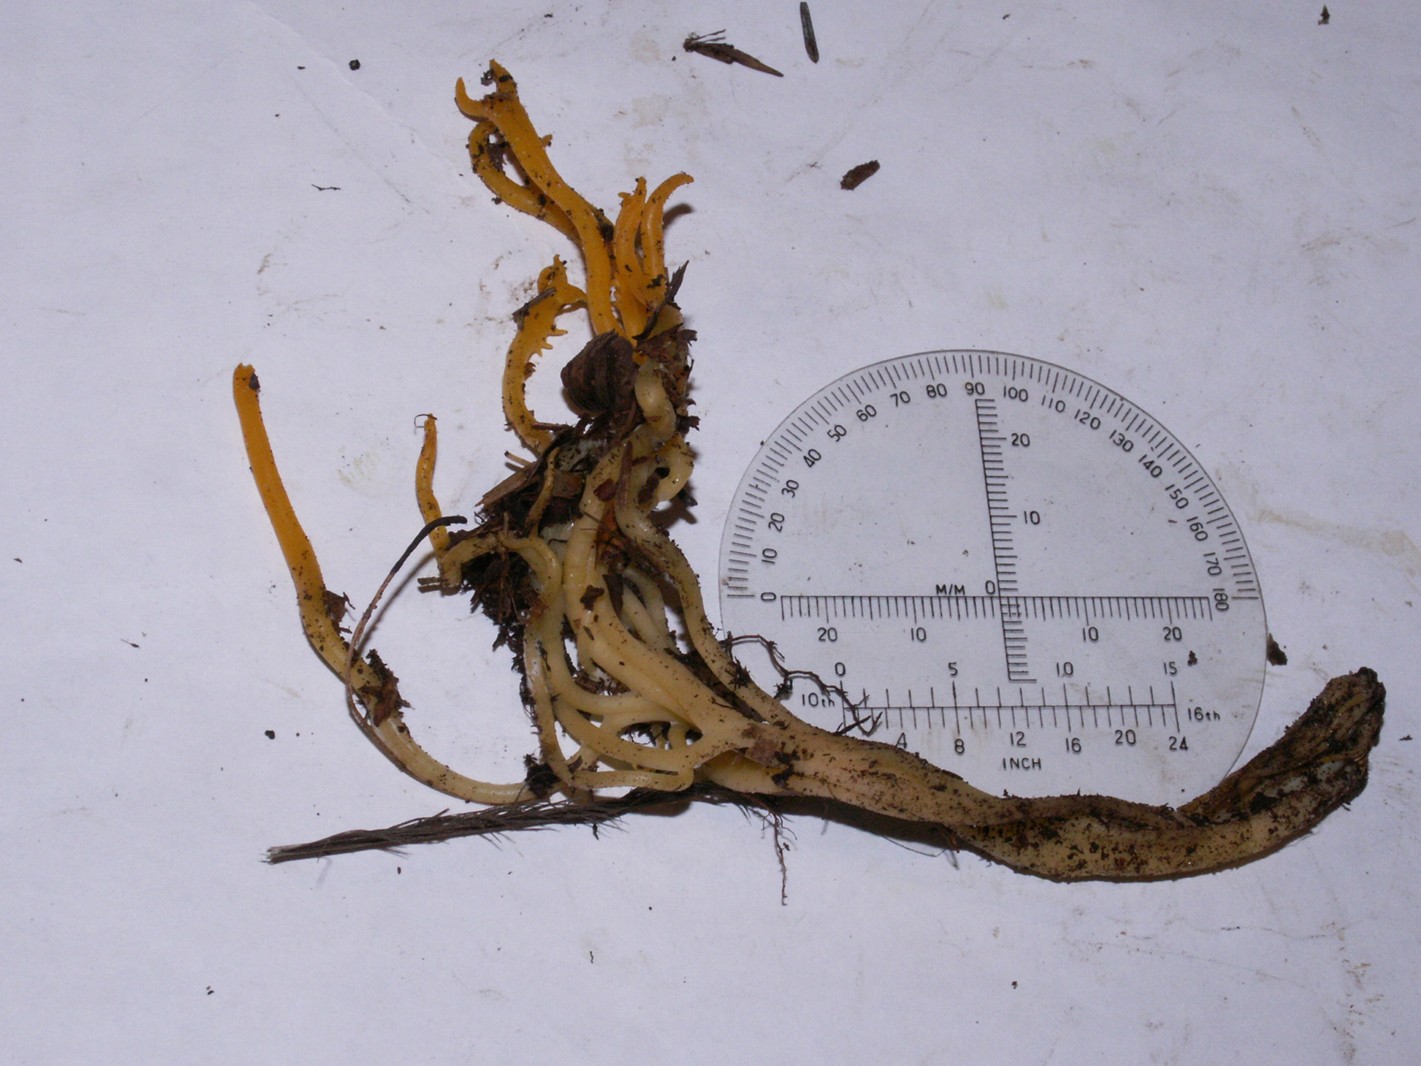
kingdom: Fungi
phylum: Basidiomycota
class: Dacrymycetes
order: Dacrymycetales
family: Dacrymycetaceae
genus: Calocera
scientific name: Calocera viscosa
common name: almindelig guldgaffel
